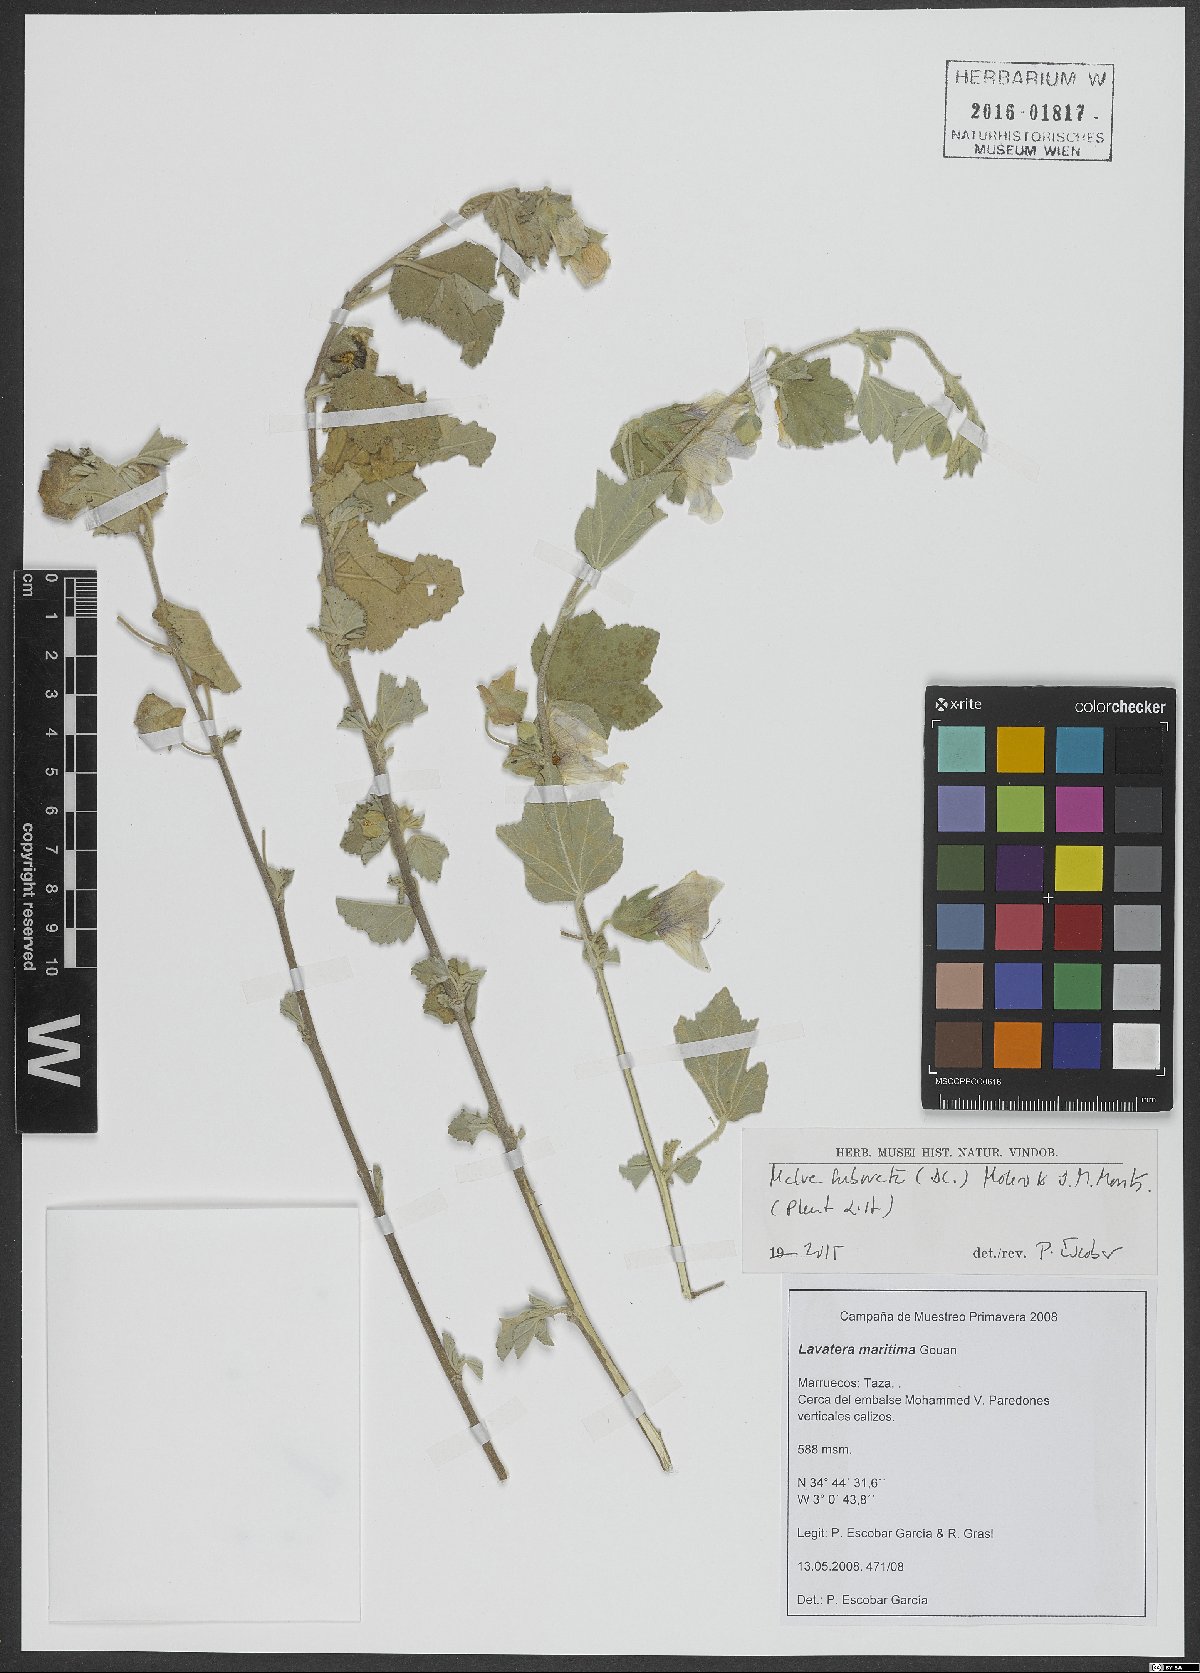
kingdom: Plantae
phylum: Tracheophyta
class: Magnoliopsida
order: Malvales
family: Malvaceae
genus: Malva
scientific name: Malva subovata
